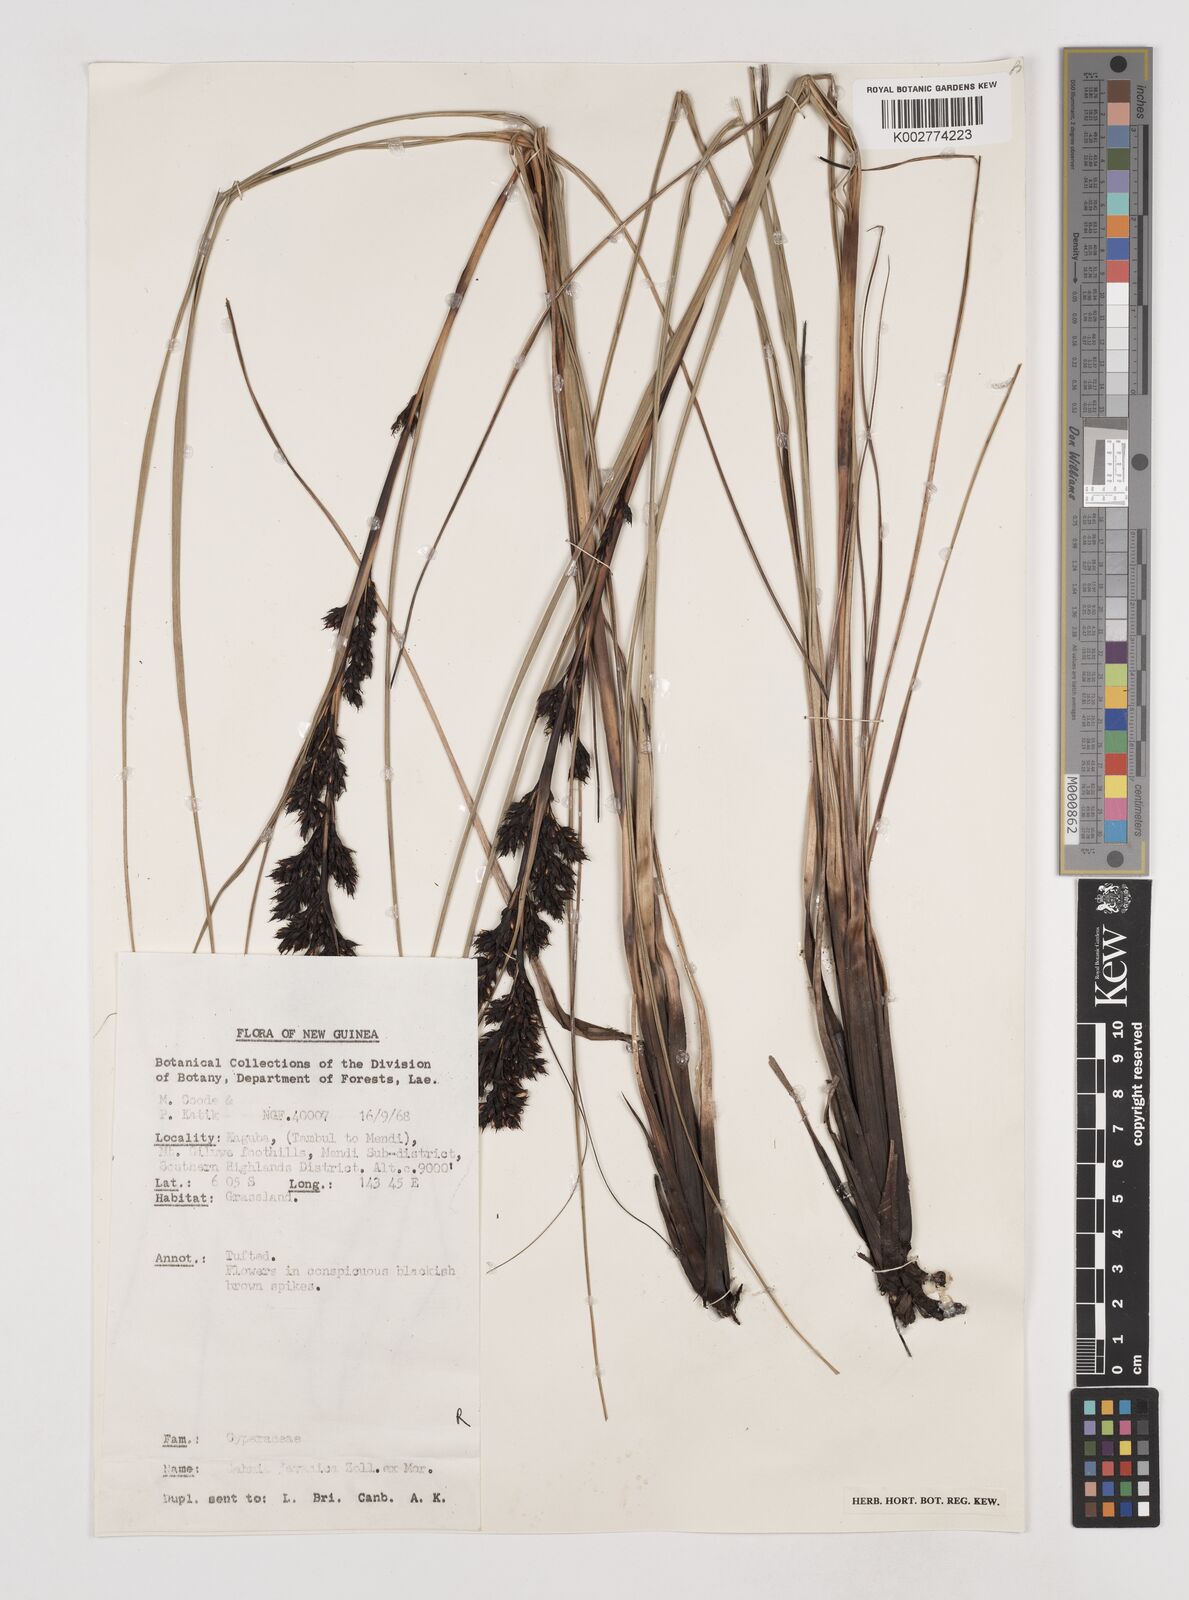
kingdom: Plantae
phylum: Tracheophyta
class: Liliopsida
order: Poales
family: Cyperaceae
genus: Gahnia
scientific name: Gahnia javanica
